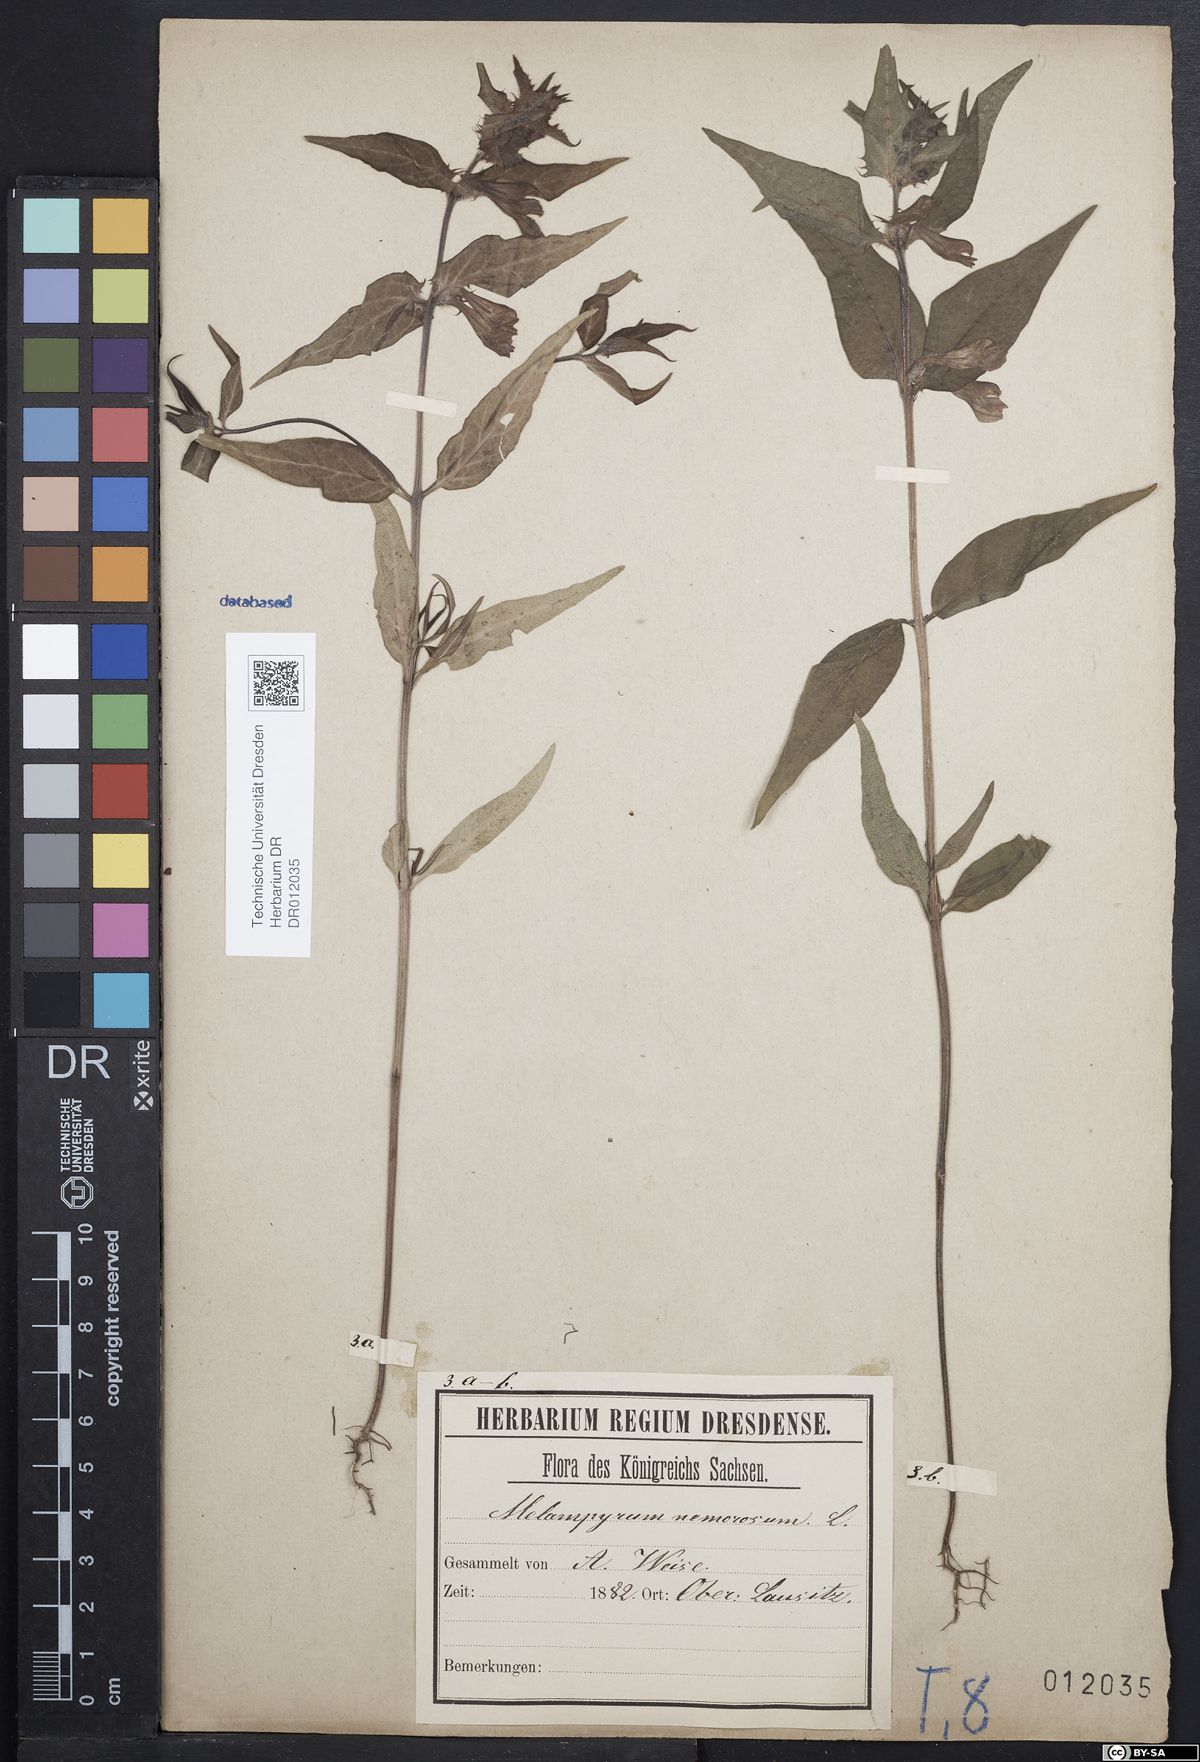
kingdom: Plantae
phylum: Tracheophyta
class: Magnoliopsida
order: Lamiales
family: Orobanchaceae
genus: Melampyrum
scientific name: Melampyrum nemorosum
